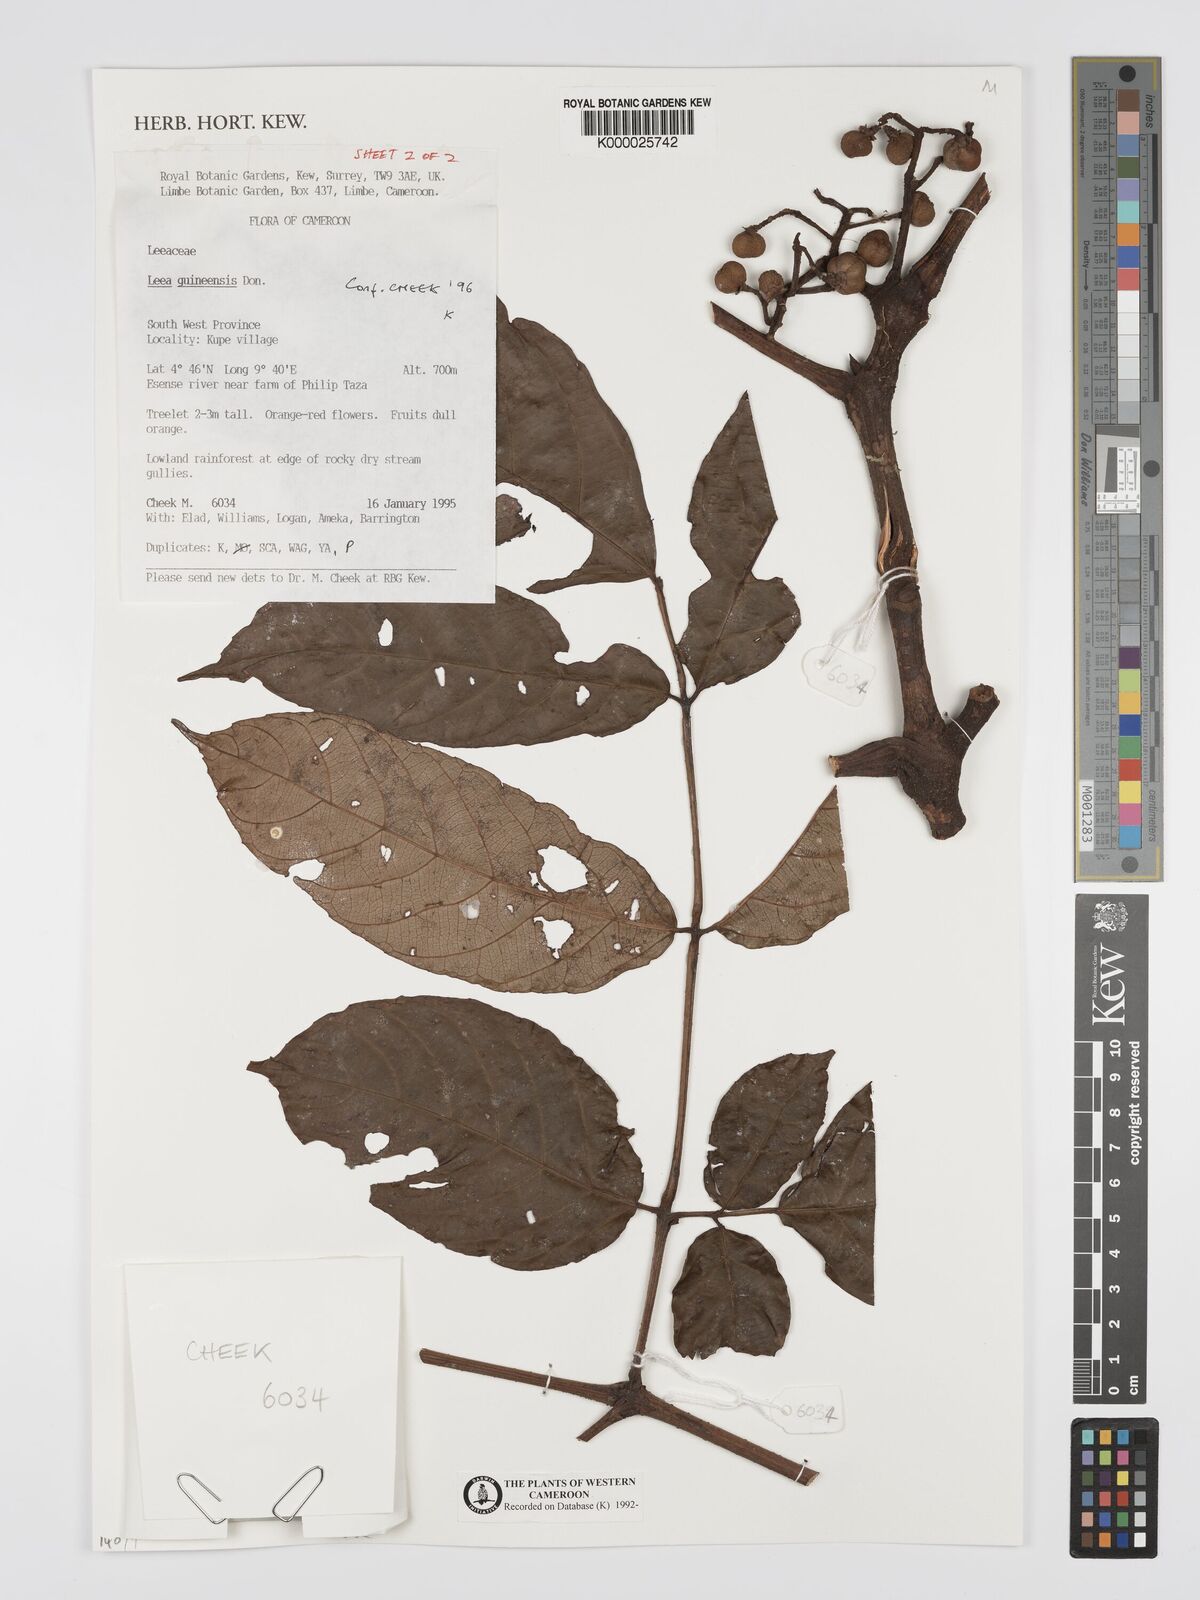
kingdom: Plantae
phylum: Tracheophyta
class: Magnoliopsida
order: Vitales
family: Vitaceae
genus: Leea
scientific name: Leea guineensis
